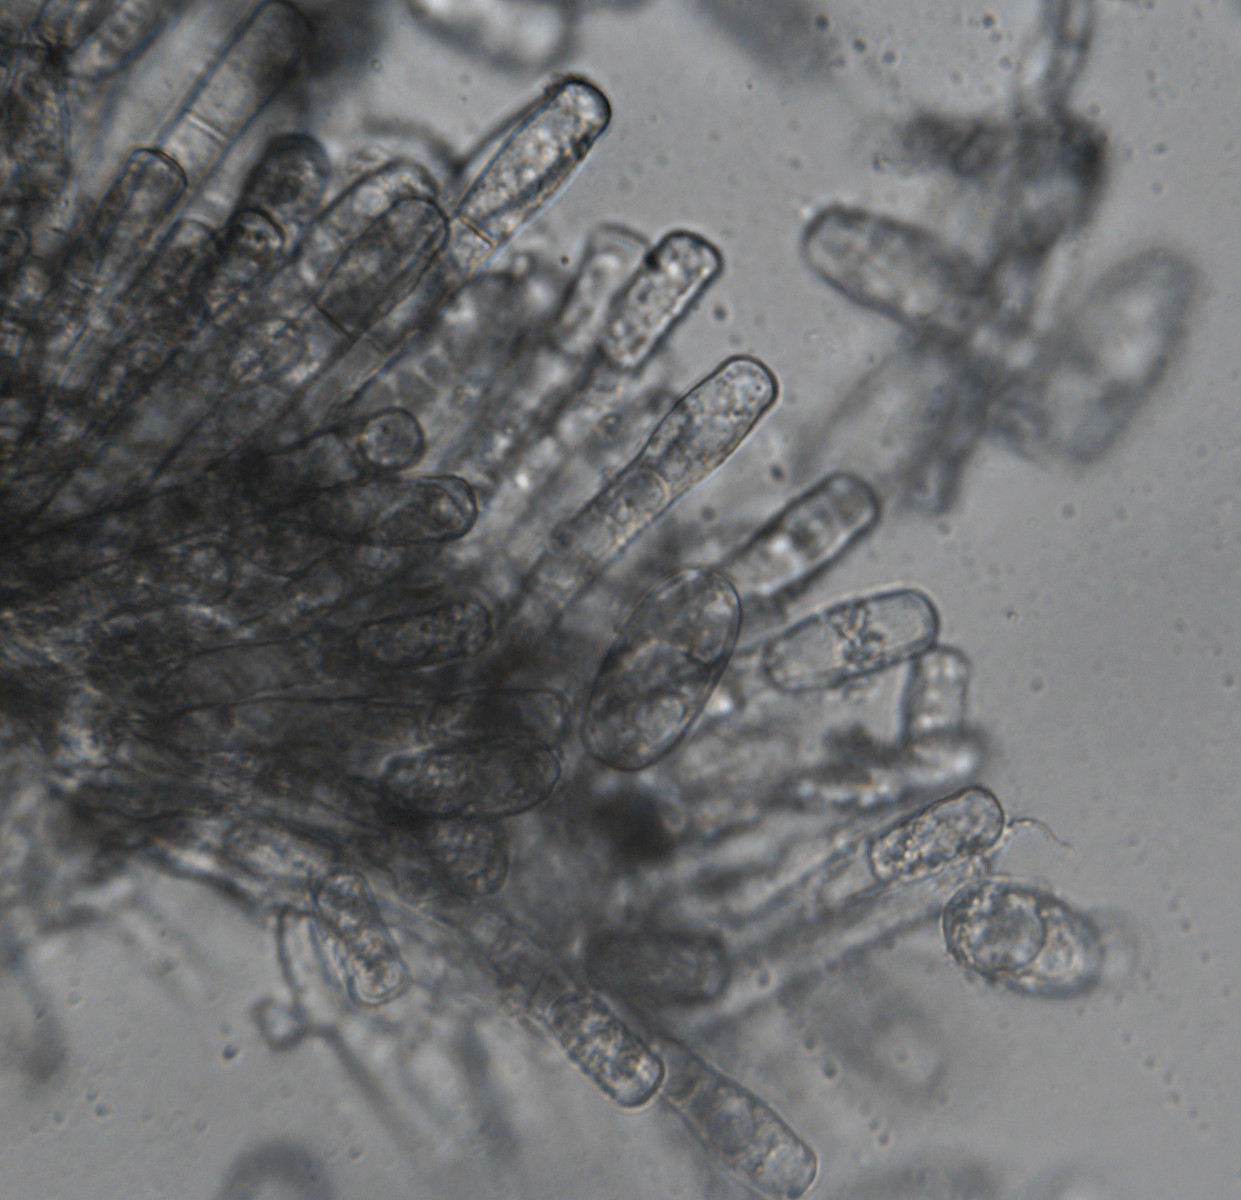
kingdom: Fungi
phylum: Ascomycota
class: Leotiomycetes
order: Helotiales
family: Erysiphaceae
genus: Erysiphe
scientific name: Erysiphe euonymicola
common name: Spindletree mildew
